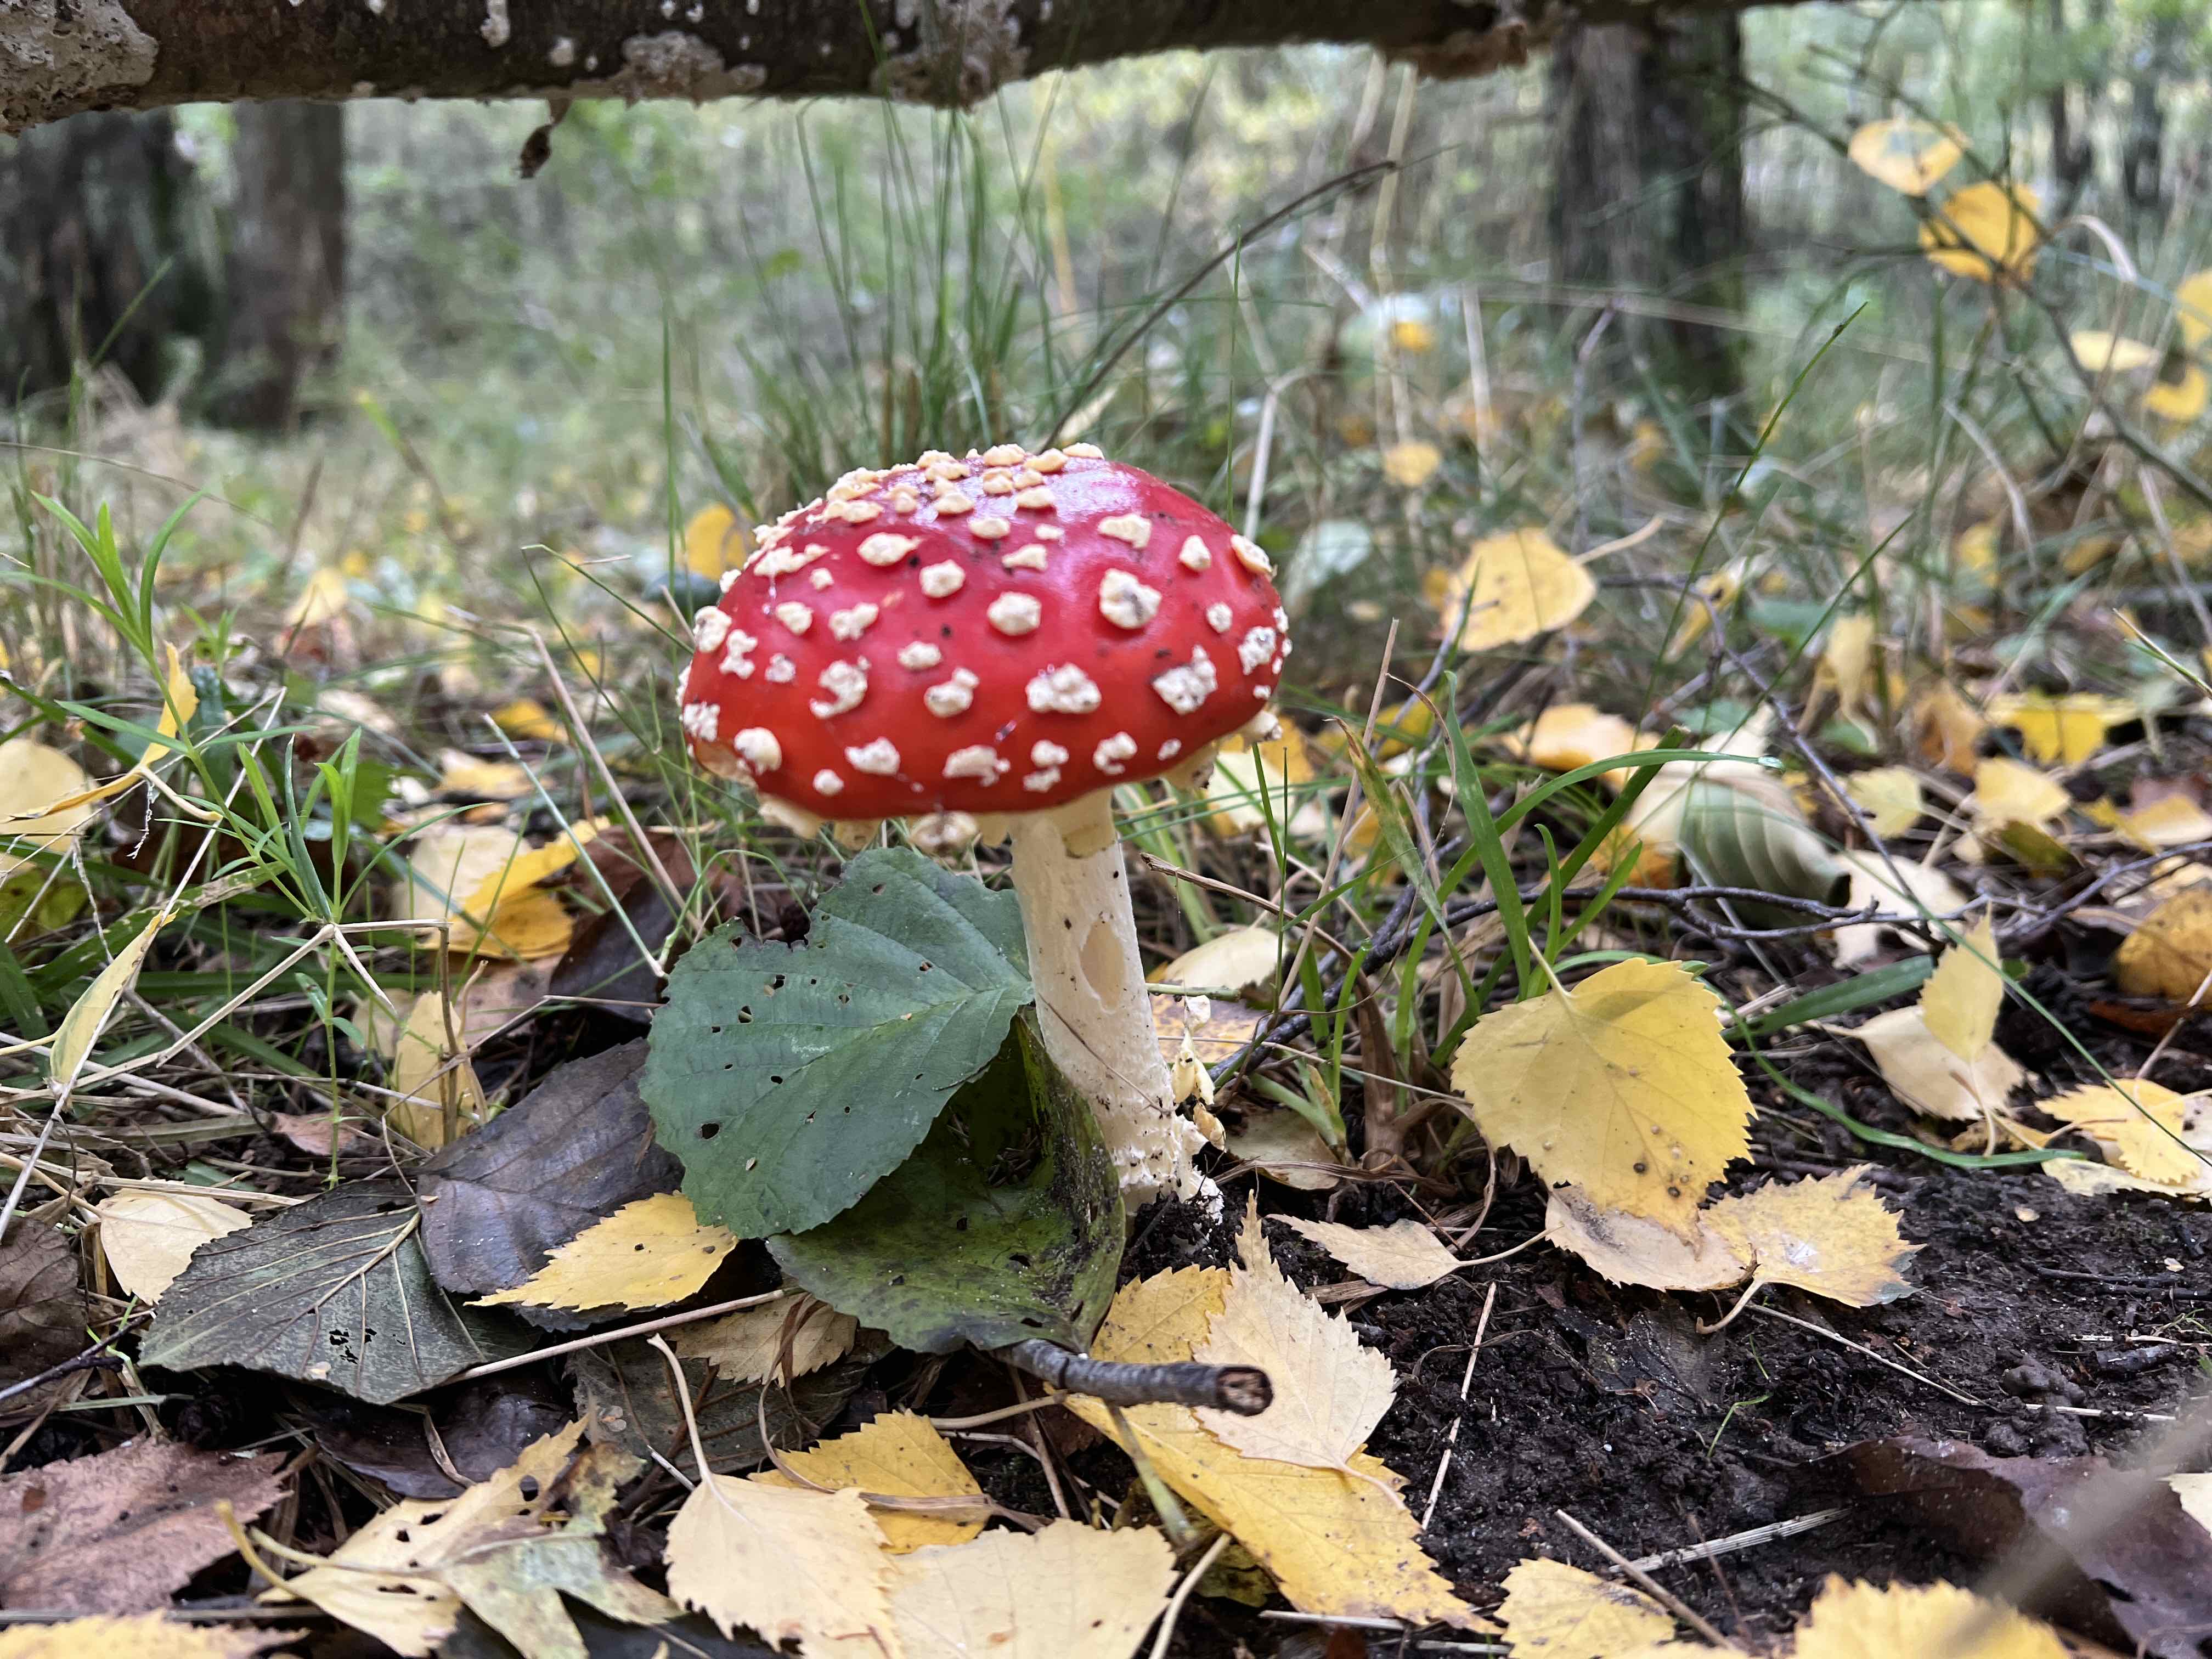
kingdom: Fungi
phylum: Basidiomycota
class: Agaricomycetes
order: Agaricales
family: Amanitaceae
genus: Amanita
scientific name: Amanita muscaria
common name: rød fluesvamp
